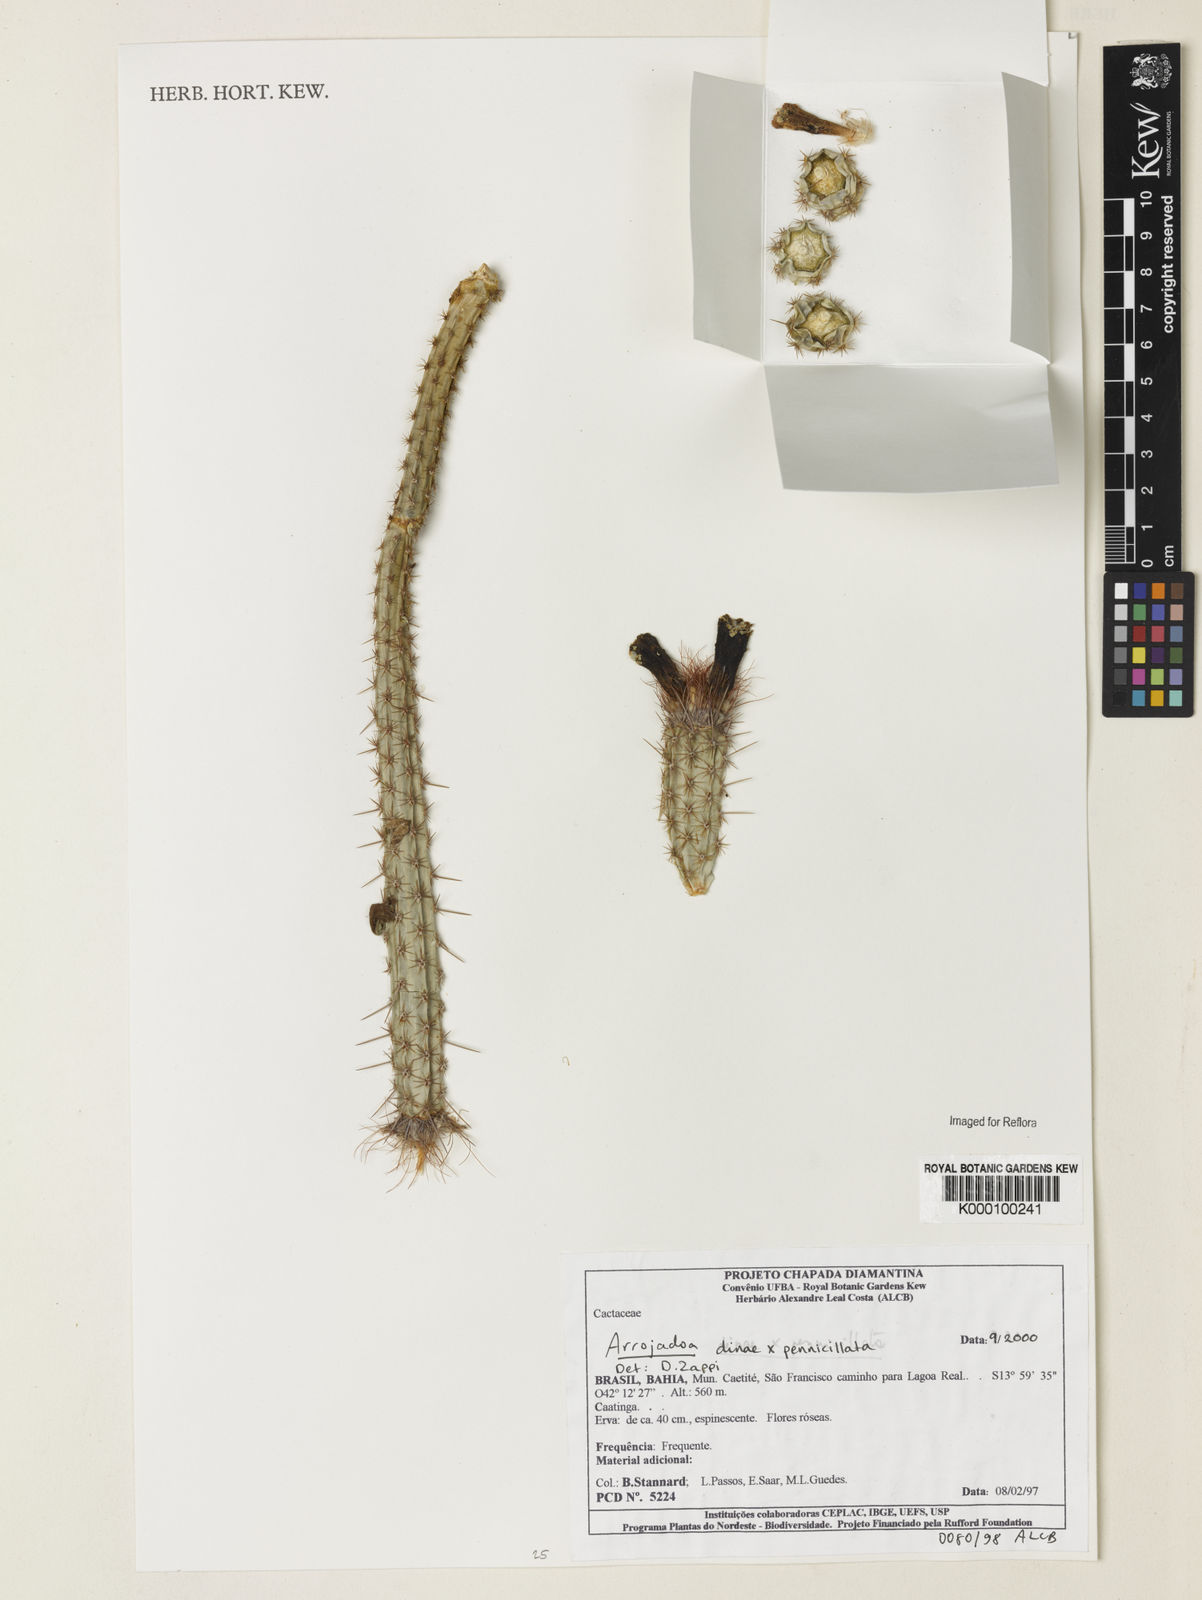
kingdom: Plantae
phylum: Tracheophyta
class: Magnoliopsida
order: Caryophyllales
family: Cactaceae
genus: Arrojadoa
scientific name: Arrojadoa
